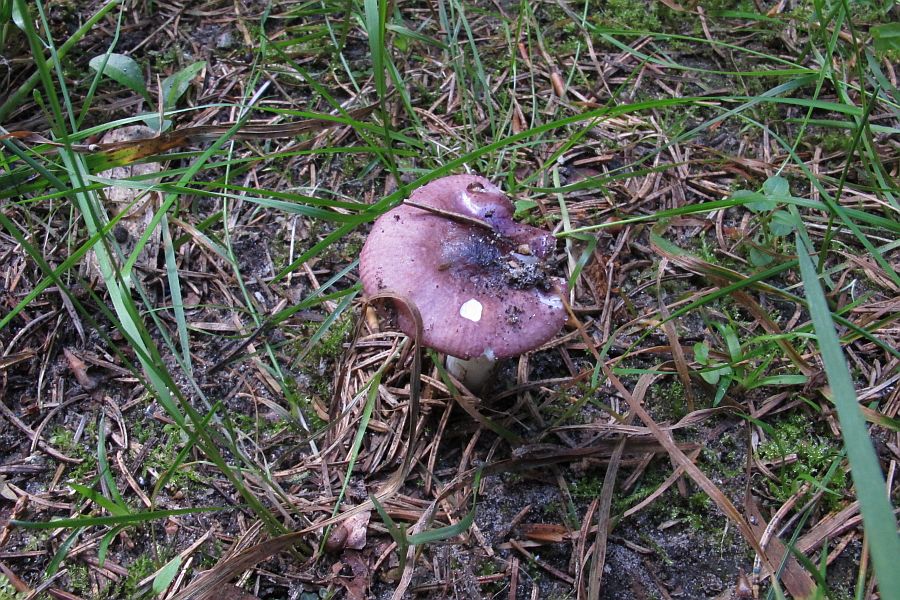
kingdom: Fungi
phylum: Basidiomycota
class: Agaricomycetes
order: Russulales
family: Russulaceae
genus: Russula
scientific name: Russula nauseosa
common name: spinkel skørhat
